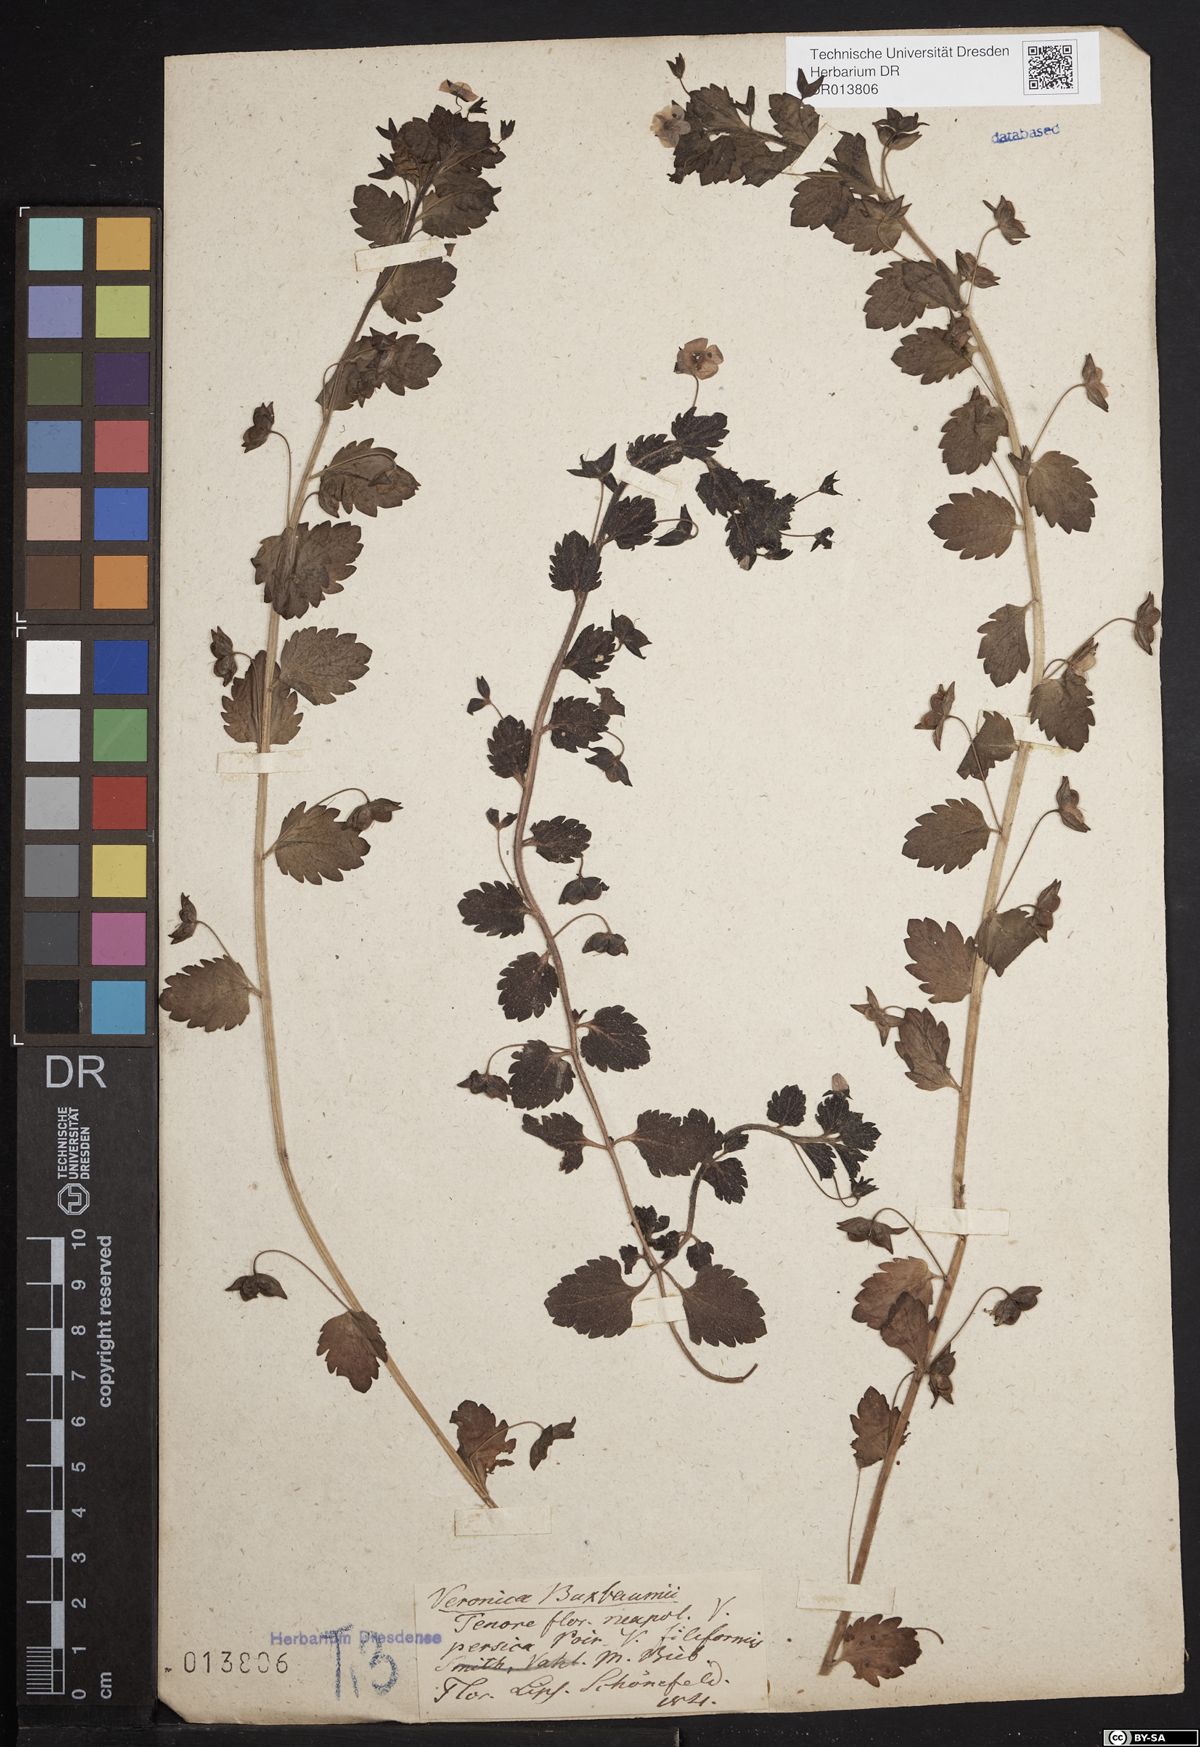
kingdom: Plantae
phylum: Tracheophyta
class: Magnoliopsida
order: Lamiales
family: Plantaginaceae
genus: Veronica
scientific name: Veronica persica
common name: Common field-speedwell
